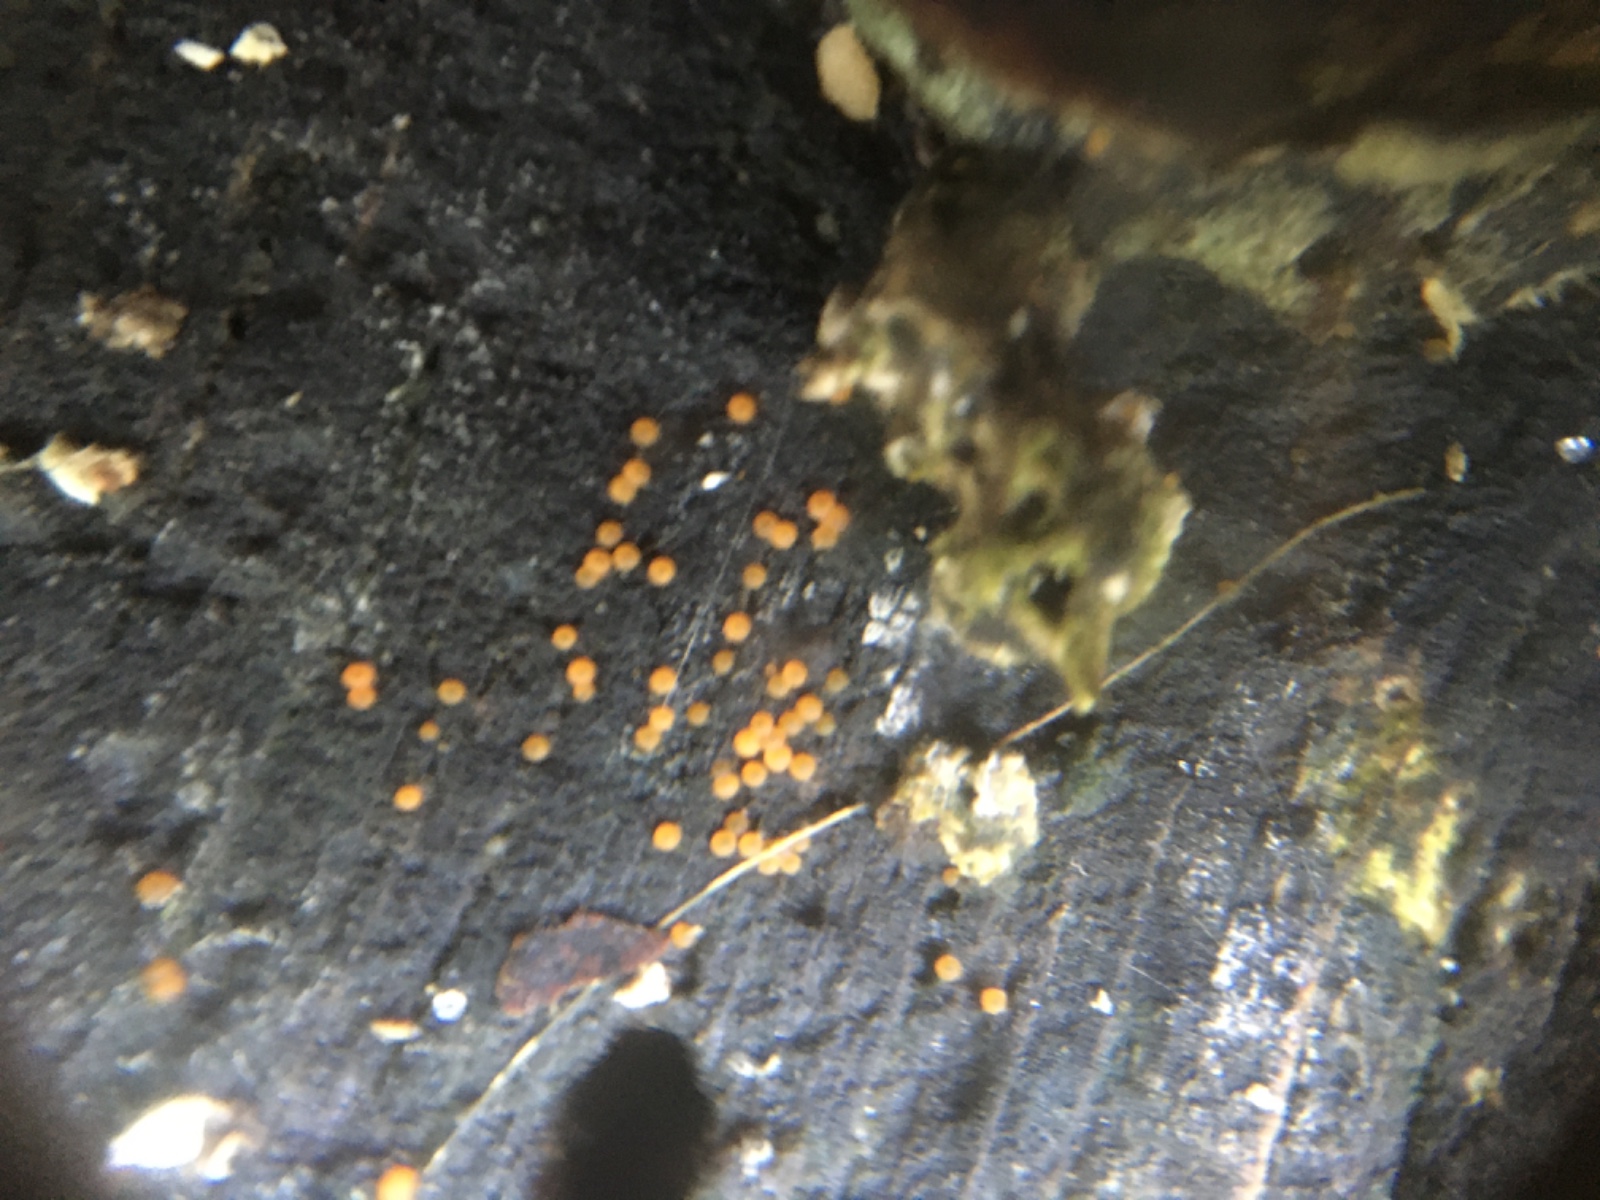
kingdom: Fungi
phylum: Ascomycota
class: Sordariomycetes
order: Hypocreales
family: Nectriaceae
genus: Hydropisphaera
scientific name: Hydropisphaera peziza
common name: skålformet gyldenkerne
